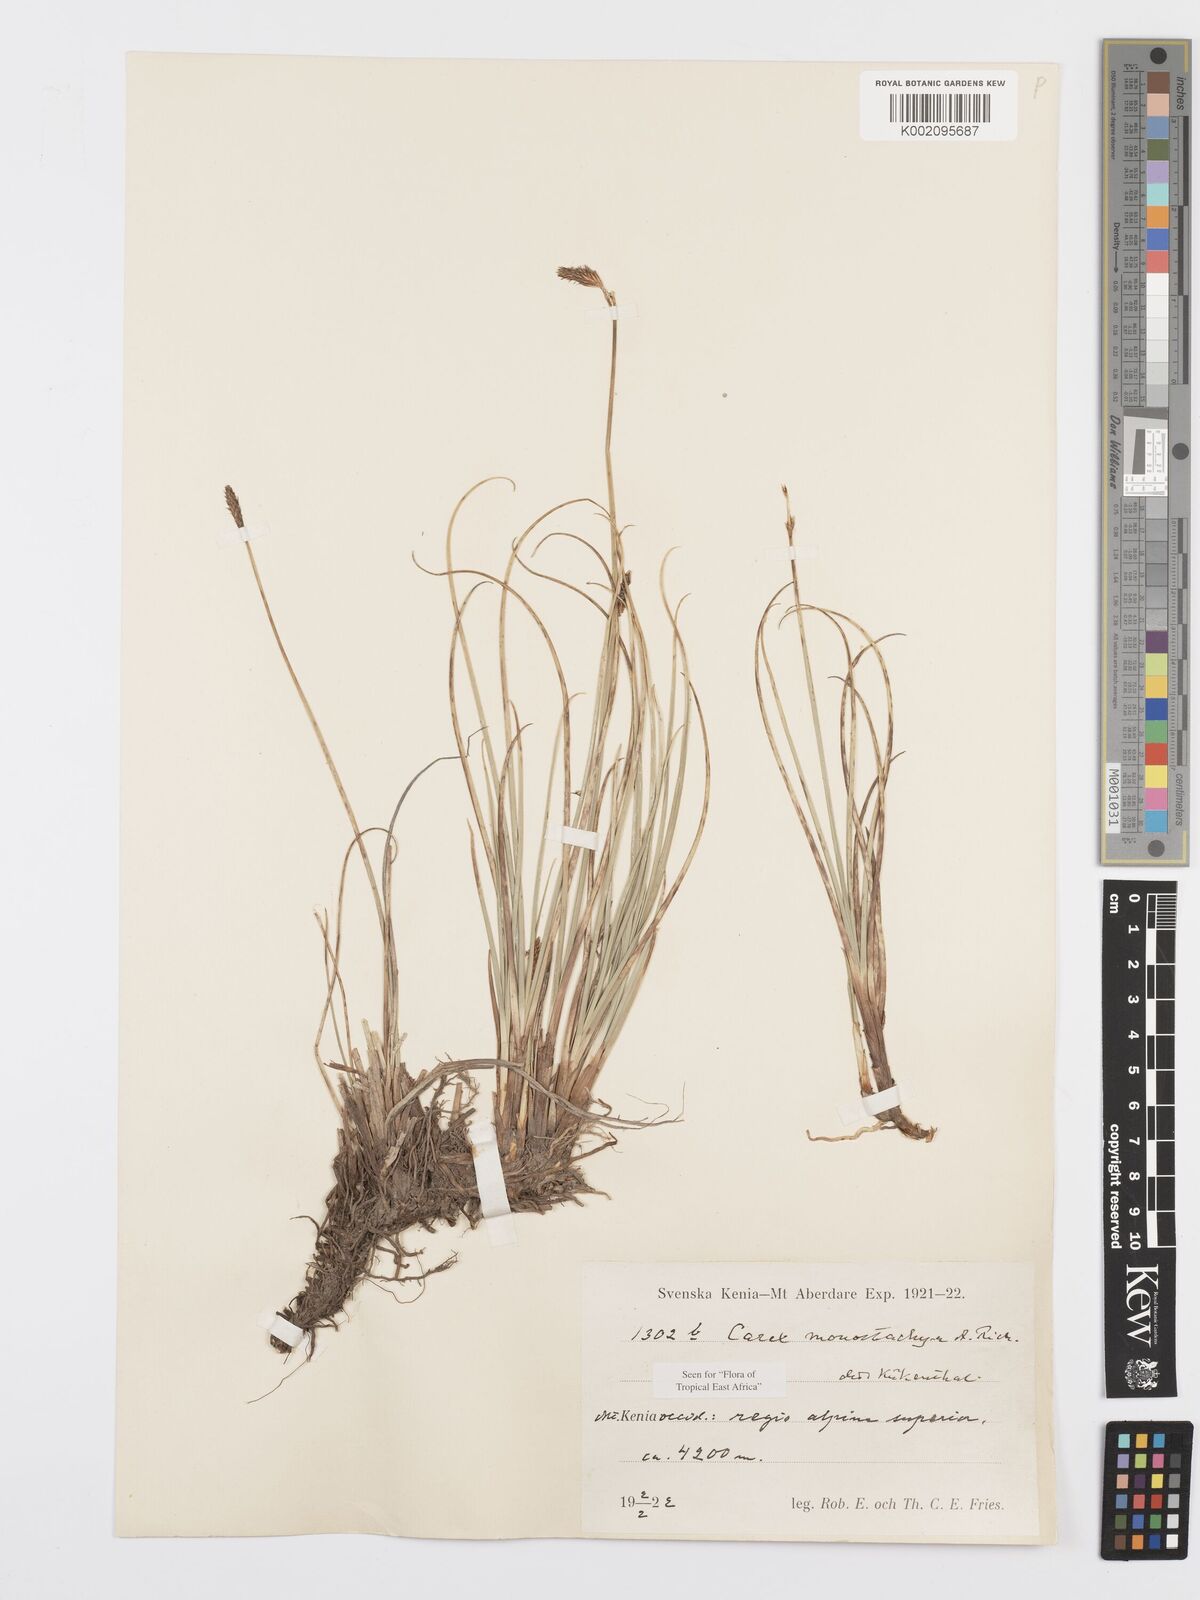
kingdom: Plantae
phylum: Tracheophyta
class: Liliopsida
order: Poales
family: Cyperaceae
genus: Carex
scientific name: Carex monostachya
